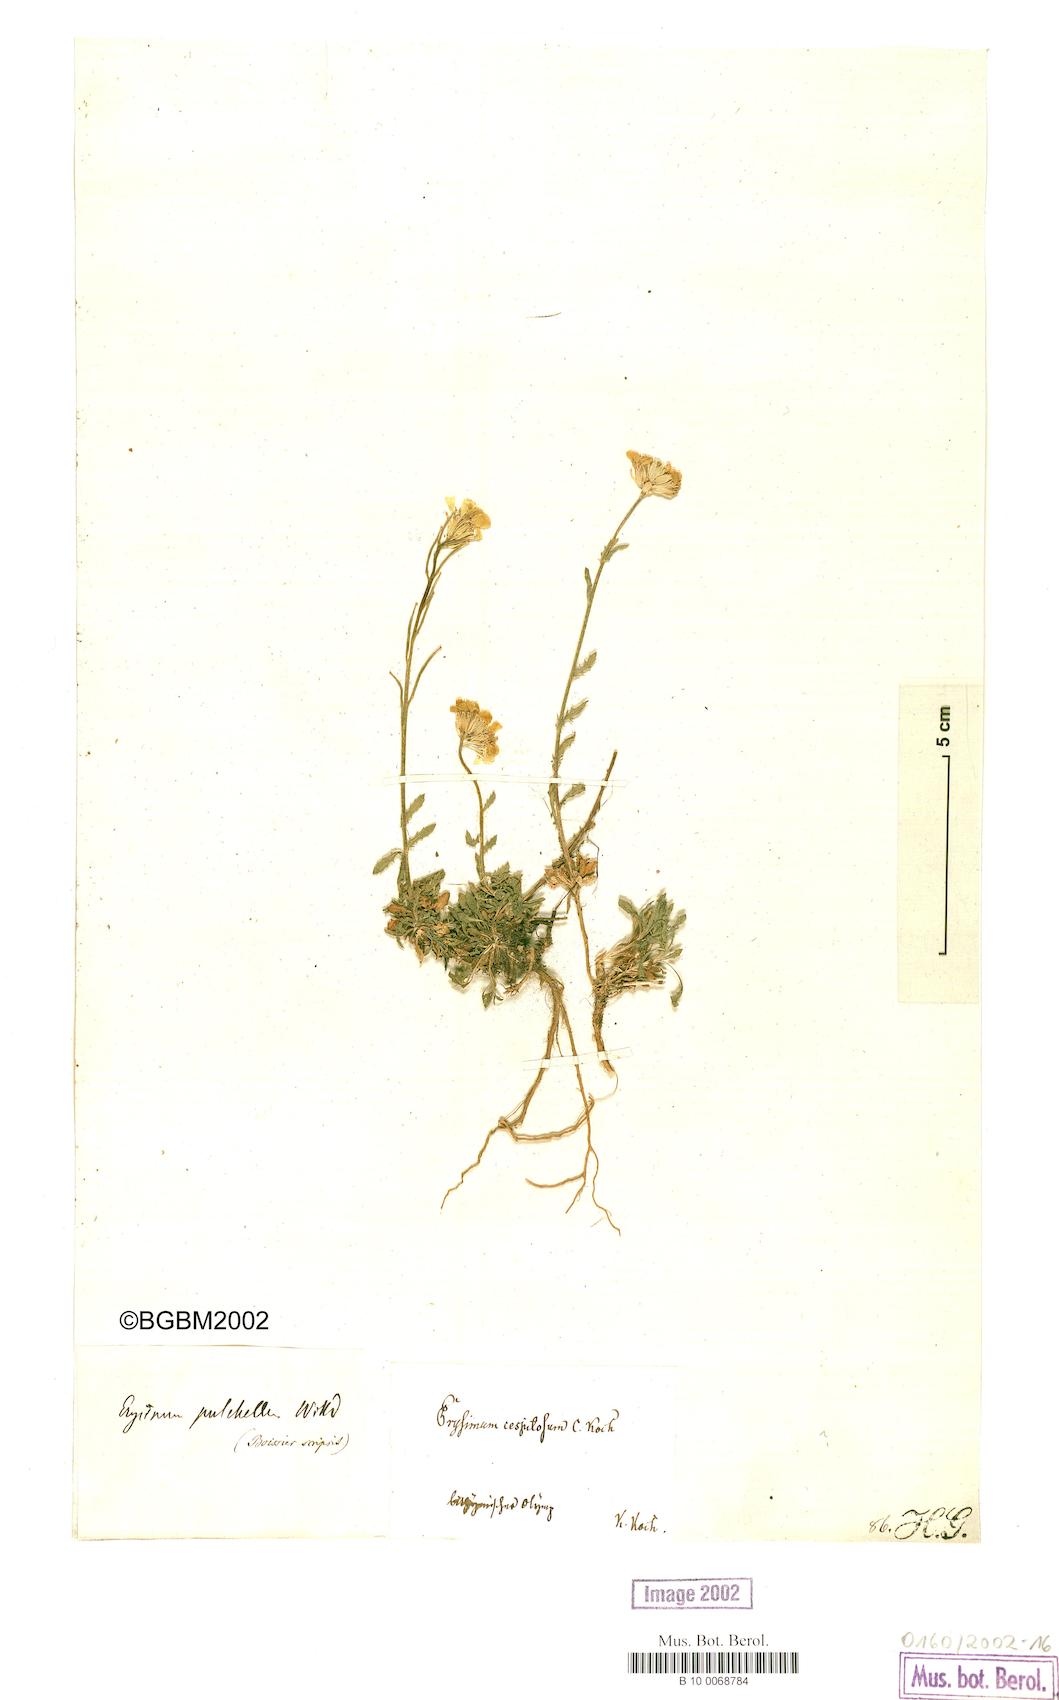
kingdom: Plantae
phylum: Tracheophyta
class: Magnoliopsida
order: Brassicales
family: Brassicaceae
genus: Erysimum
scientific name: Erysimum pulchellum
